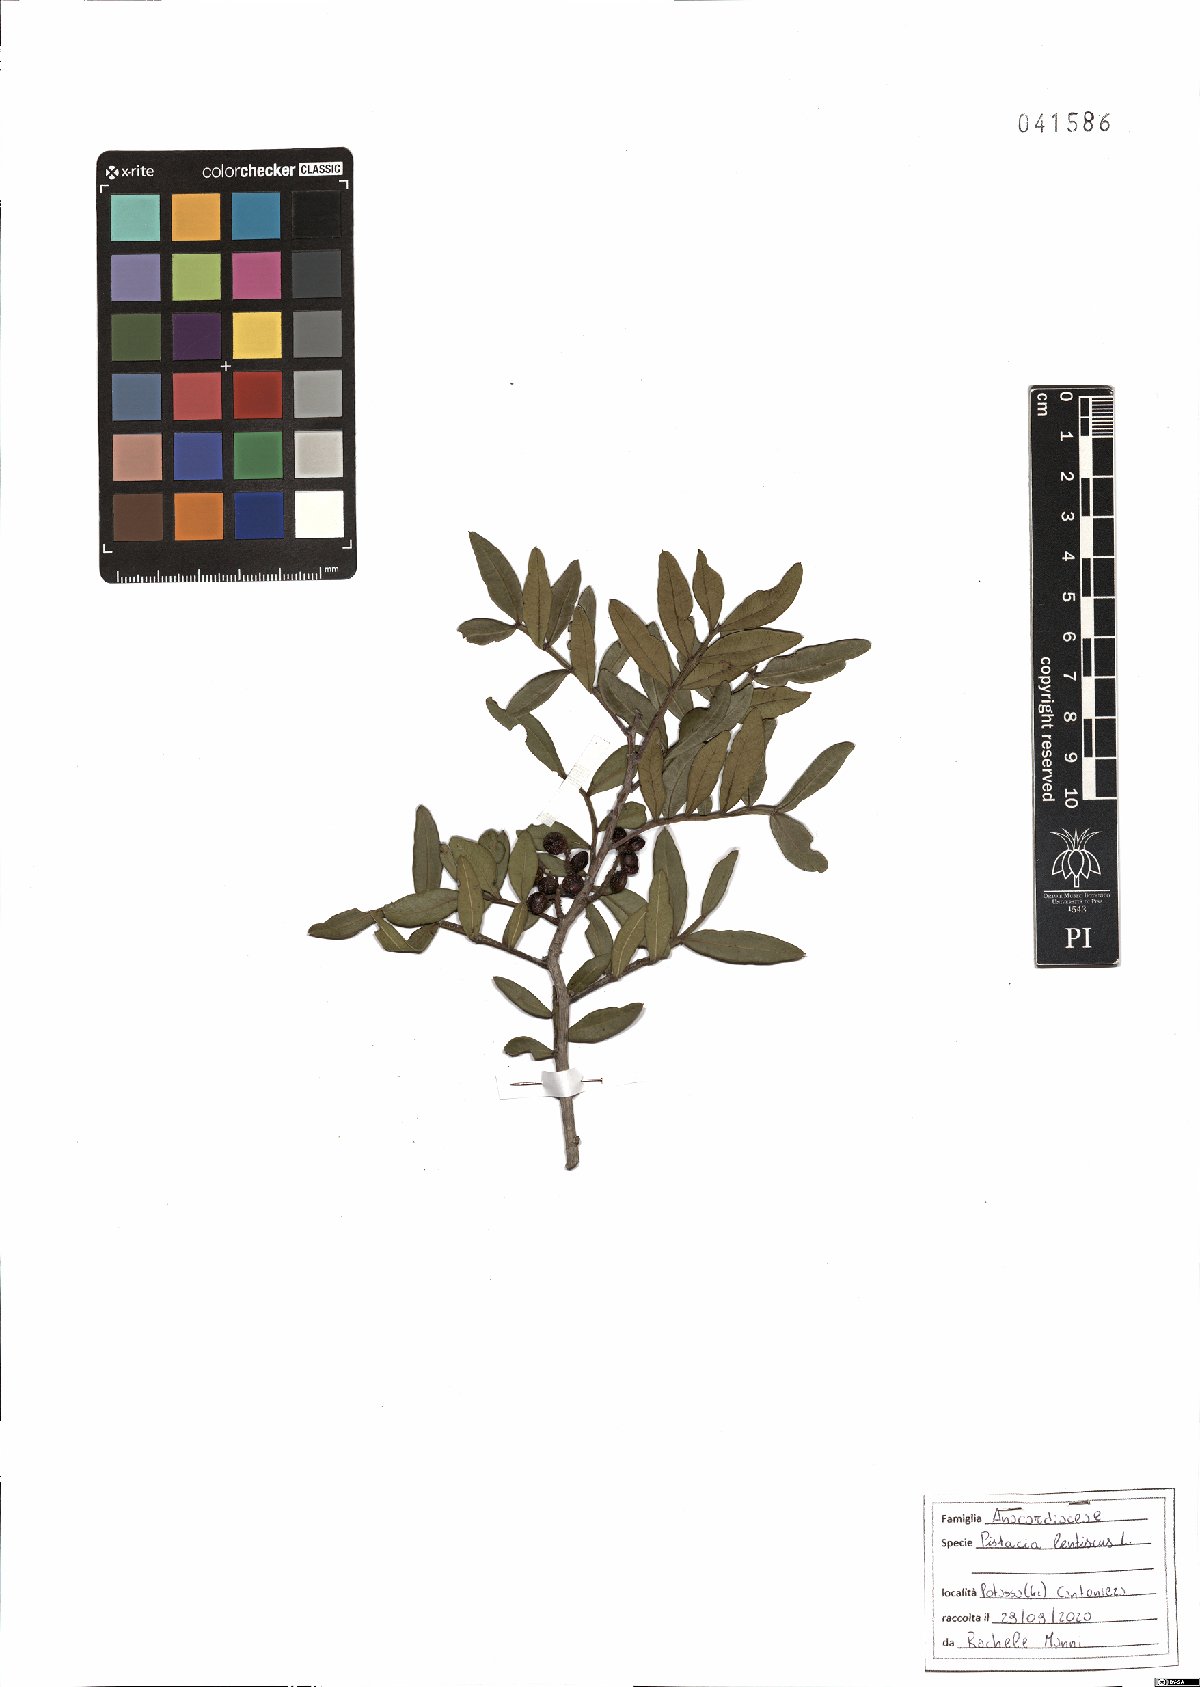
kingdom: Plantae
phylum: Tracheophyta
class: Magnoliopsida
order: Sapindales
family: Anacardiaceae
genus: Pistacia
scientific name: Pistacia lentiscus
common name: Lentisk
